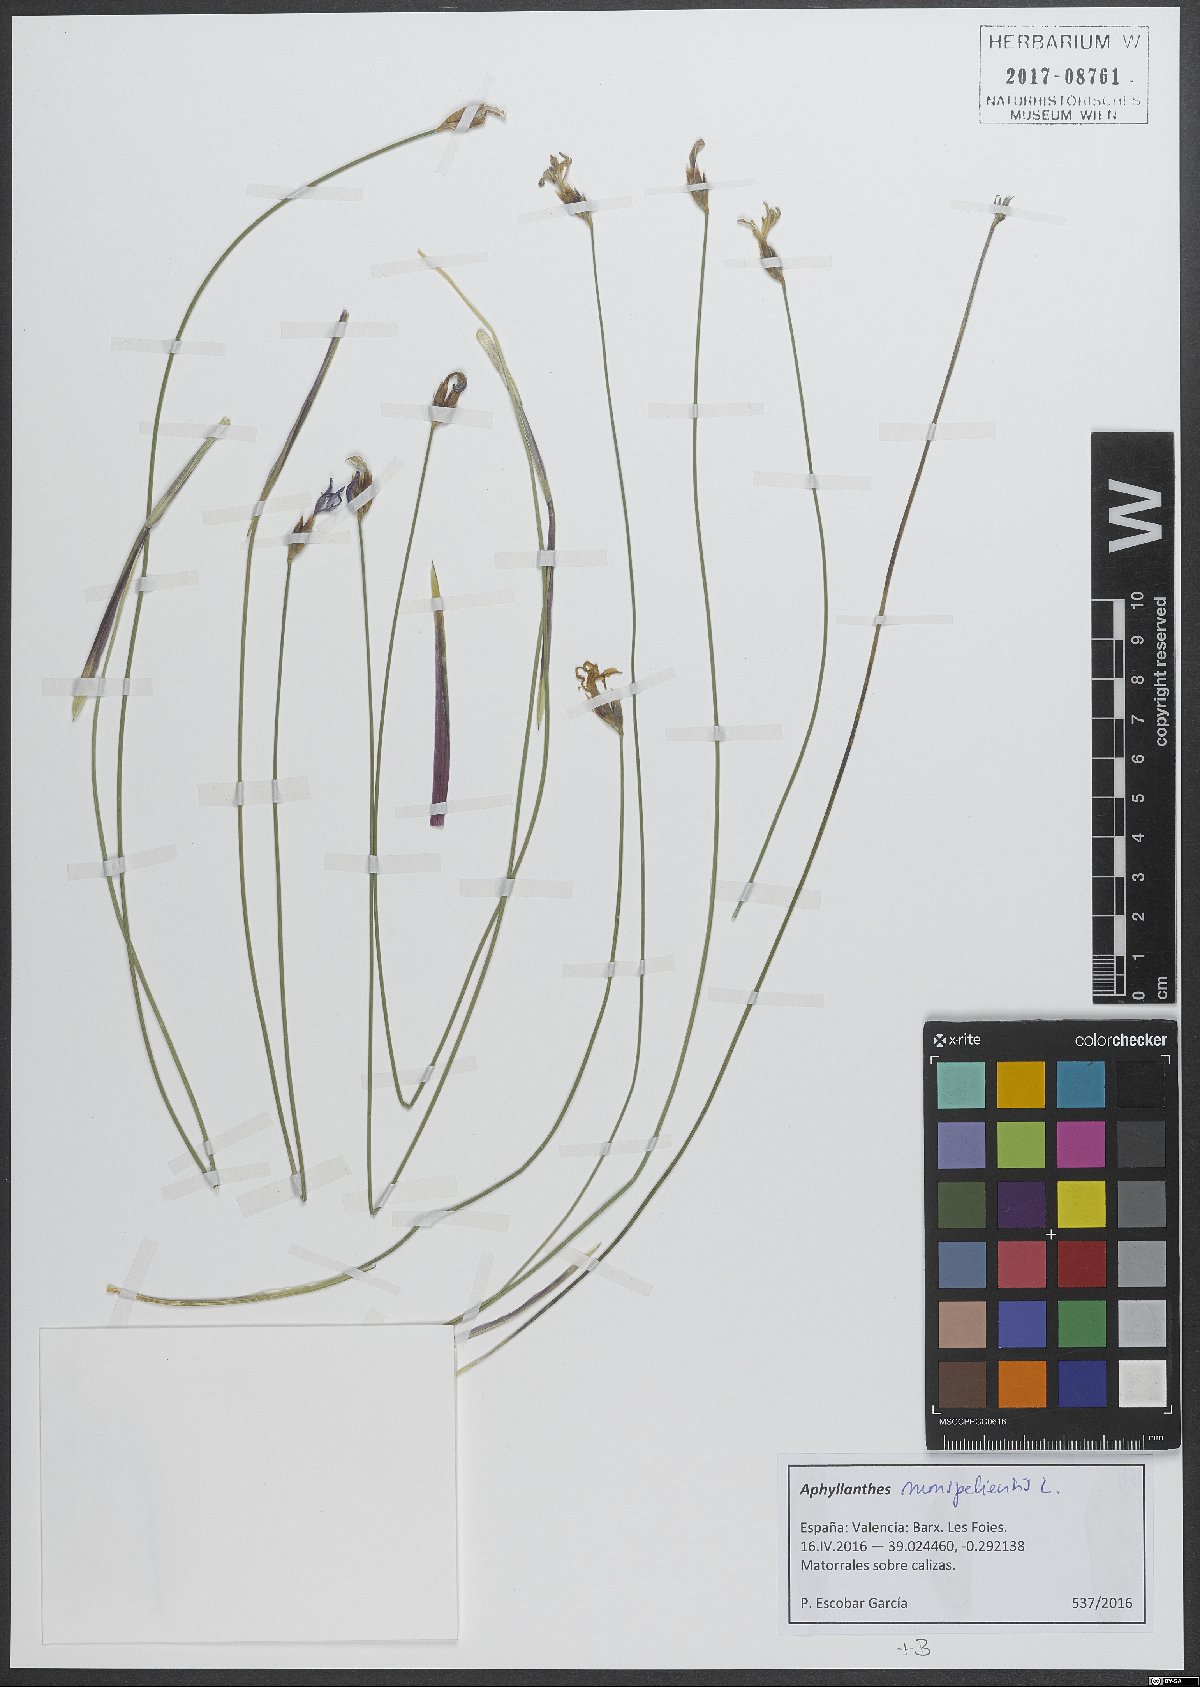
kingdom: Plantae
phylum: Tracheophyta
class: Liliopsida
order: Asparagales
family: Asparagaceae
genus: Aphyllanthes
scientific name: Aphyllanthes monspeliensis
